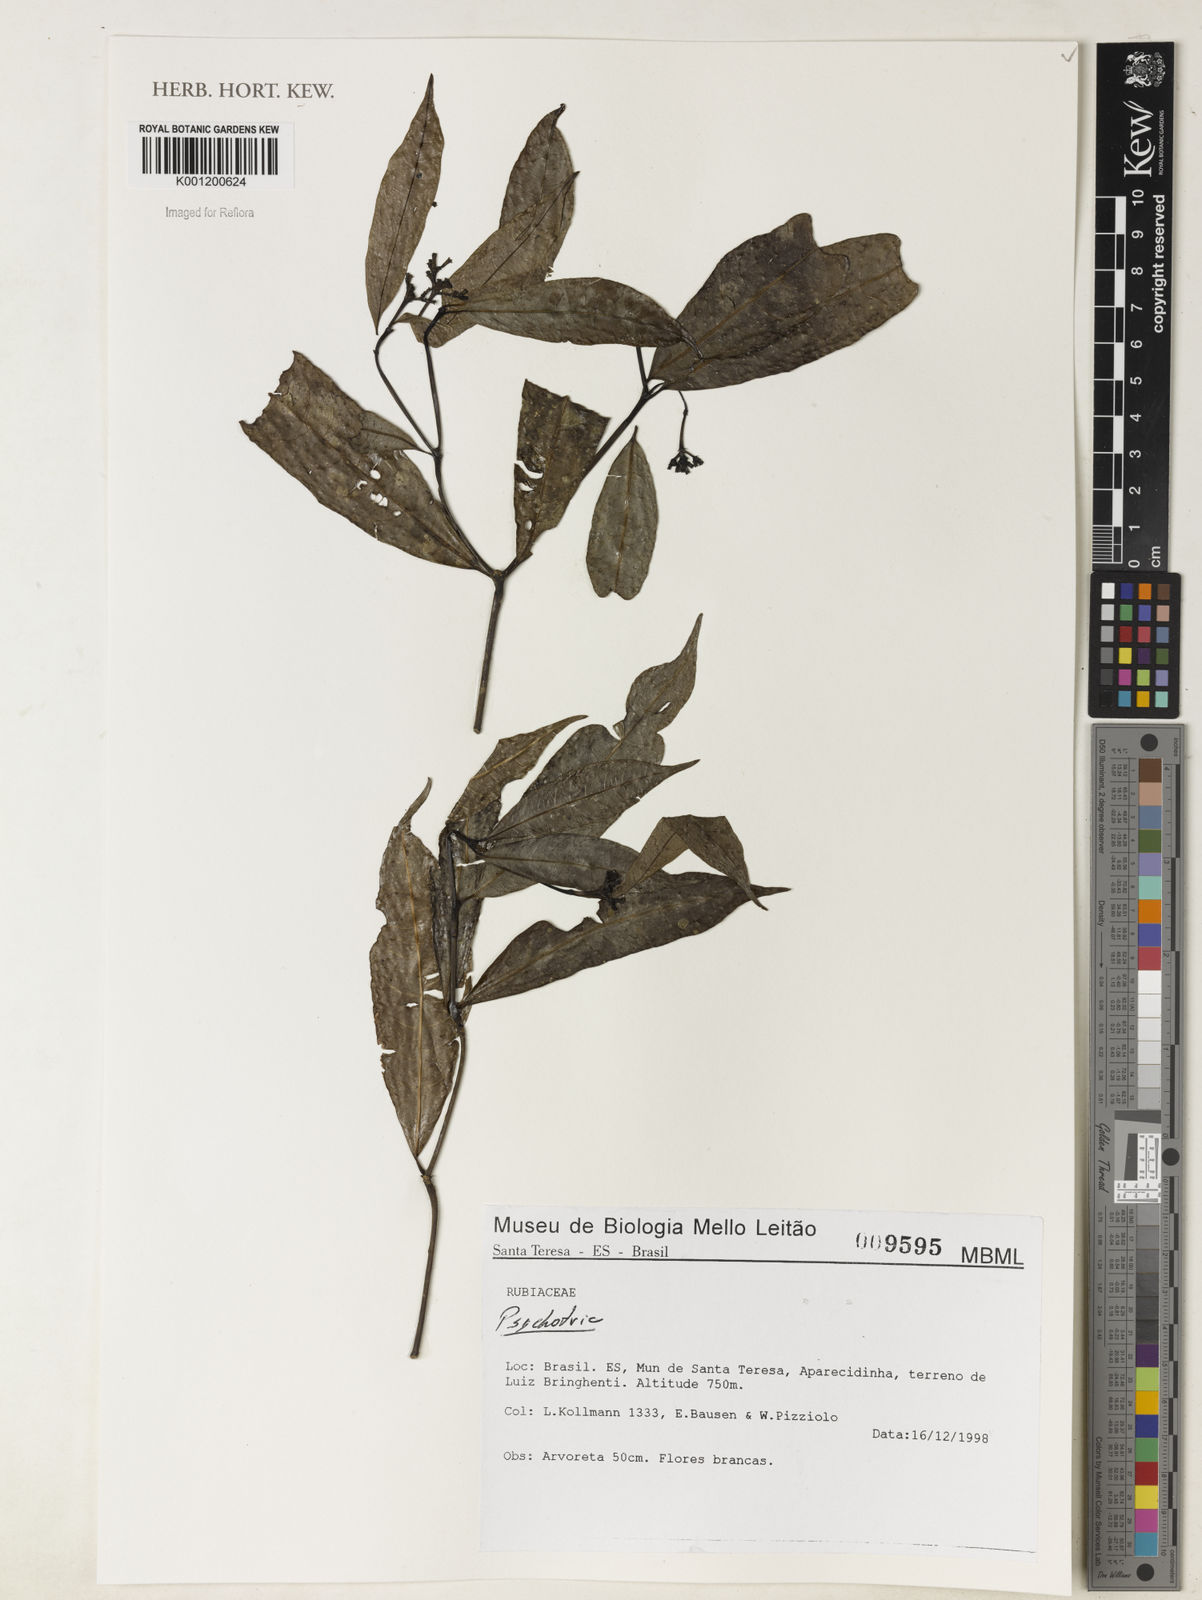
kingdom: Plantae
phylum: Tracheophyta
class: Magnoliopsida
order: Gentianales
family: Rubiaceae
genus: Psychotria
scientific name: Psychotria
